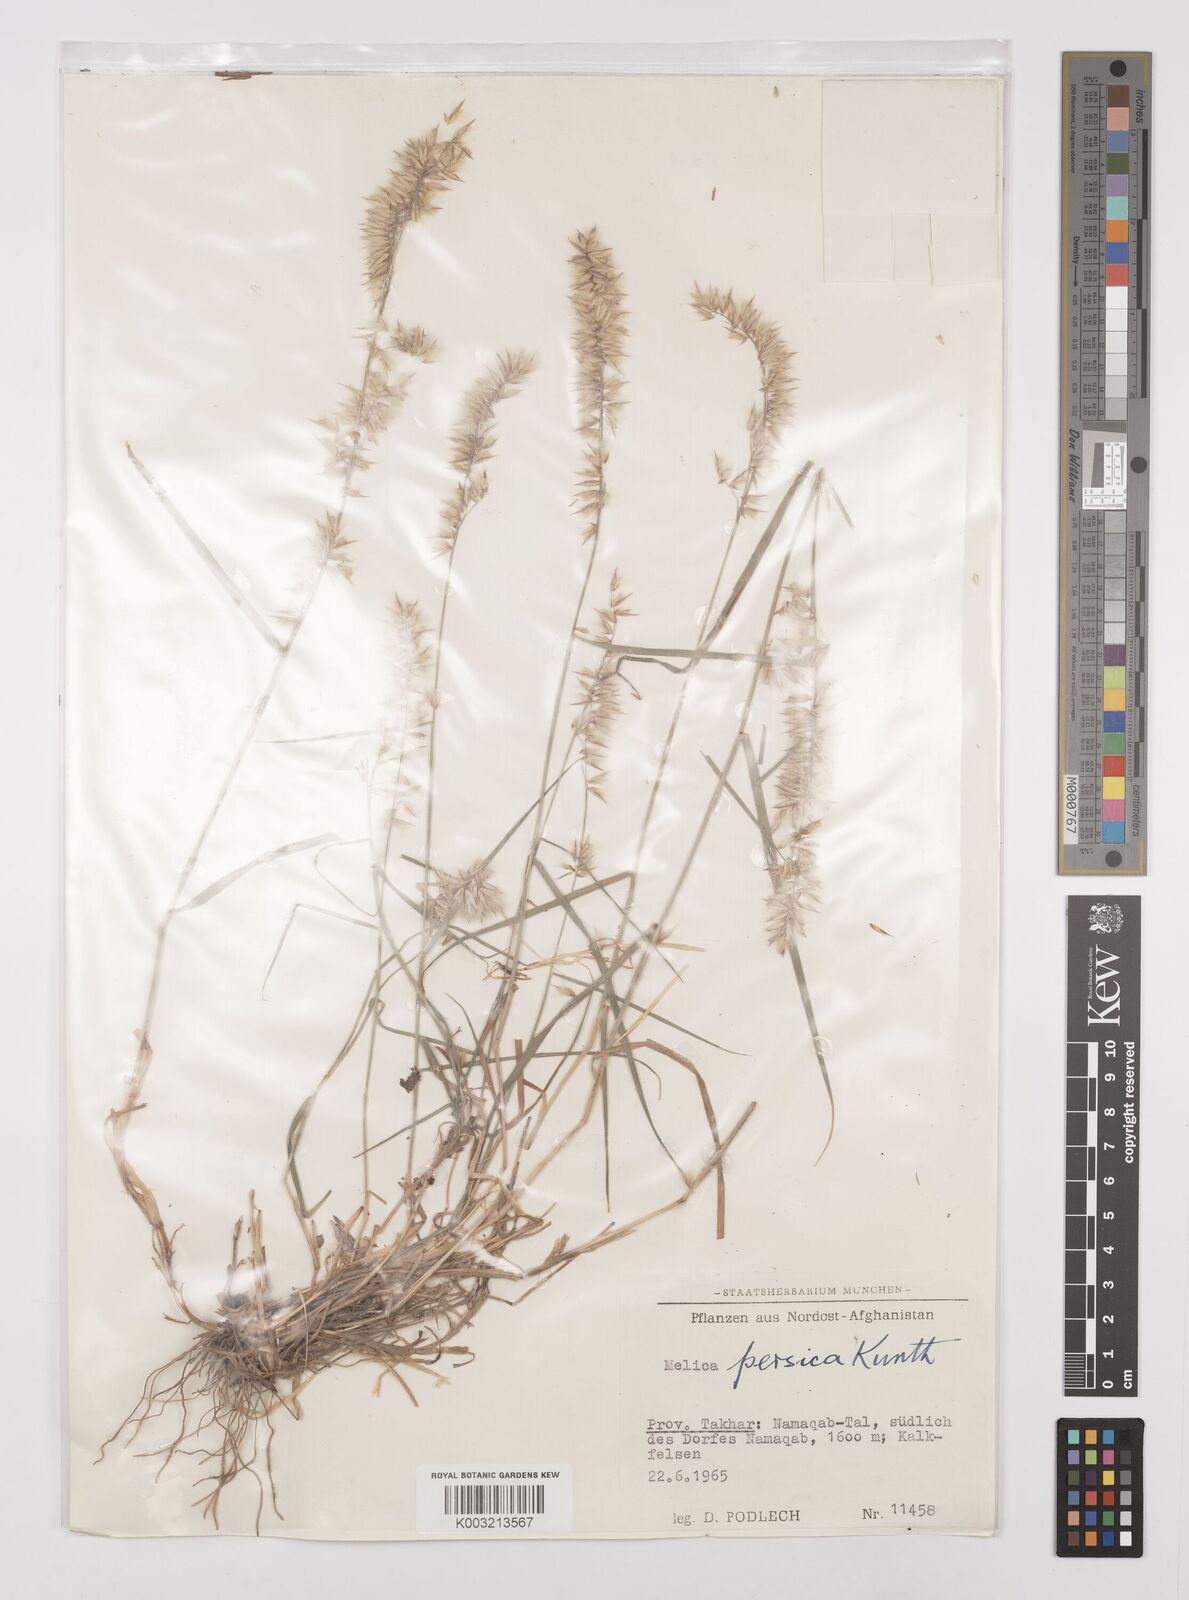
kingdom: Plantae
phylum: Tracheophyta
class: Liliopsida
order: Poales
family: Poaceae
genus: Melica
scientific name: Melica persica
